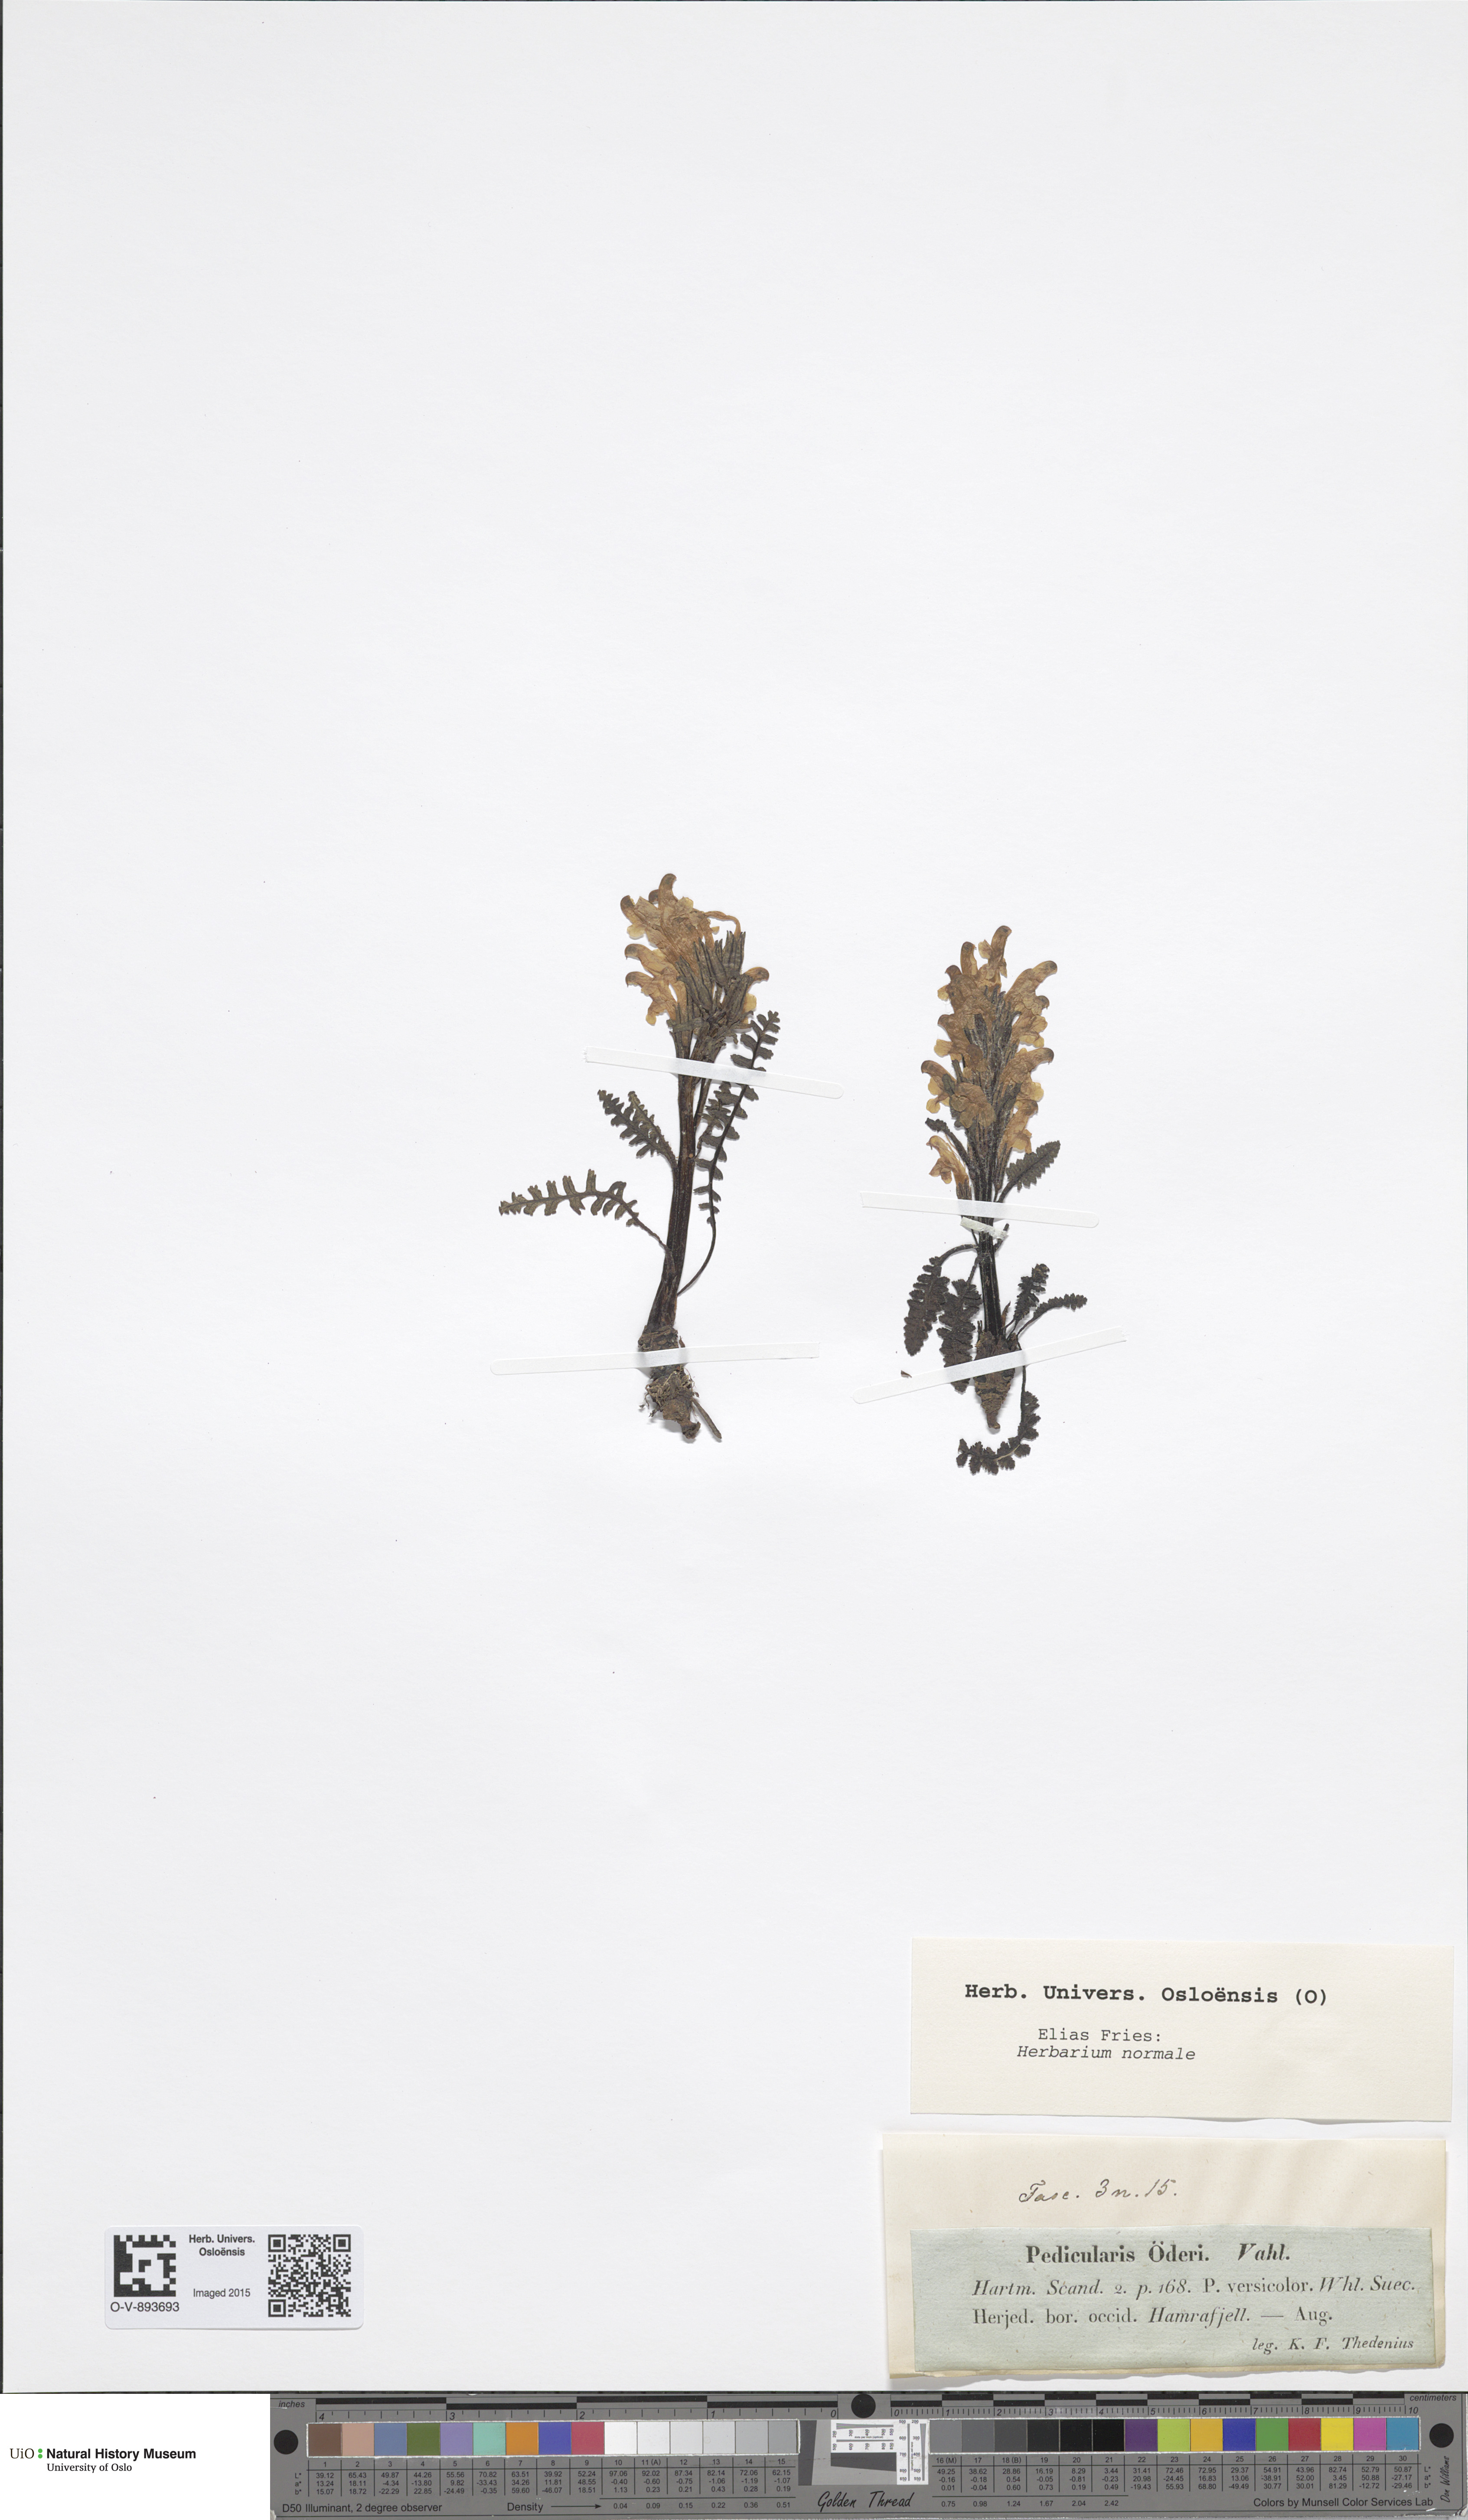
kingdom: Plantae
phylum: Tracheophyta
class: Magnoliopsida
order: Lamiales
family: Orobanchaceae
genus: Pedicularis
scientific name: Pedicularis oederi
